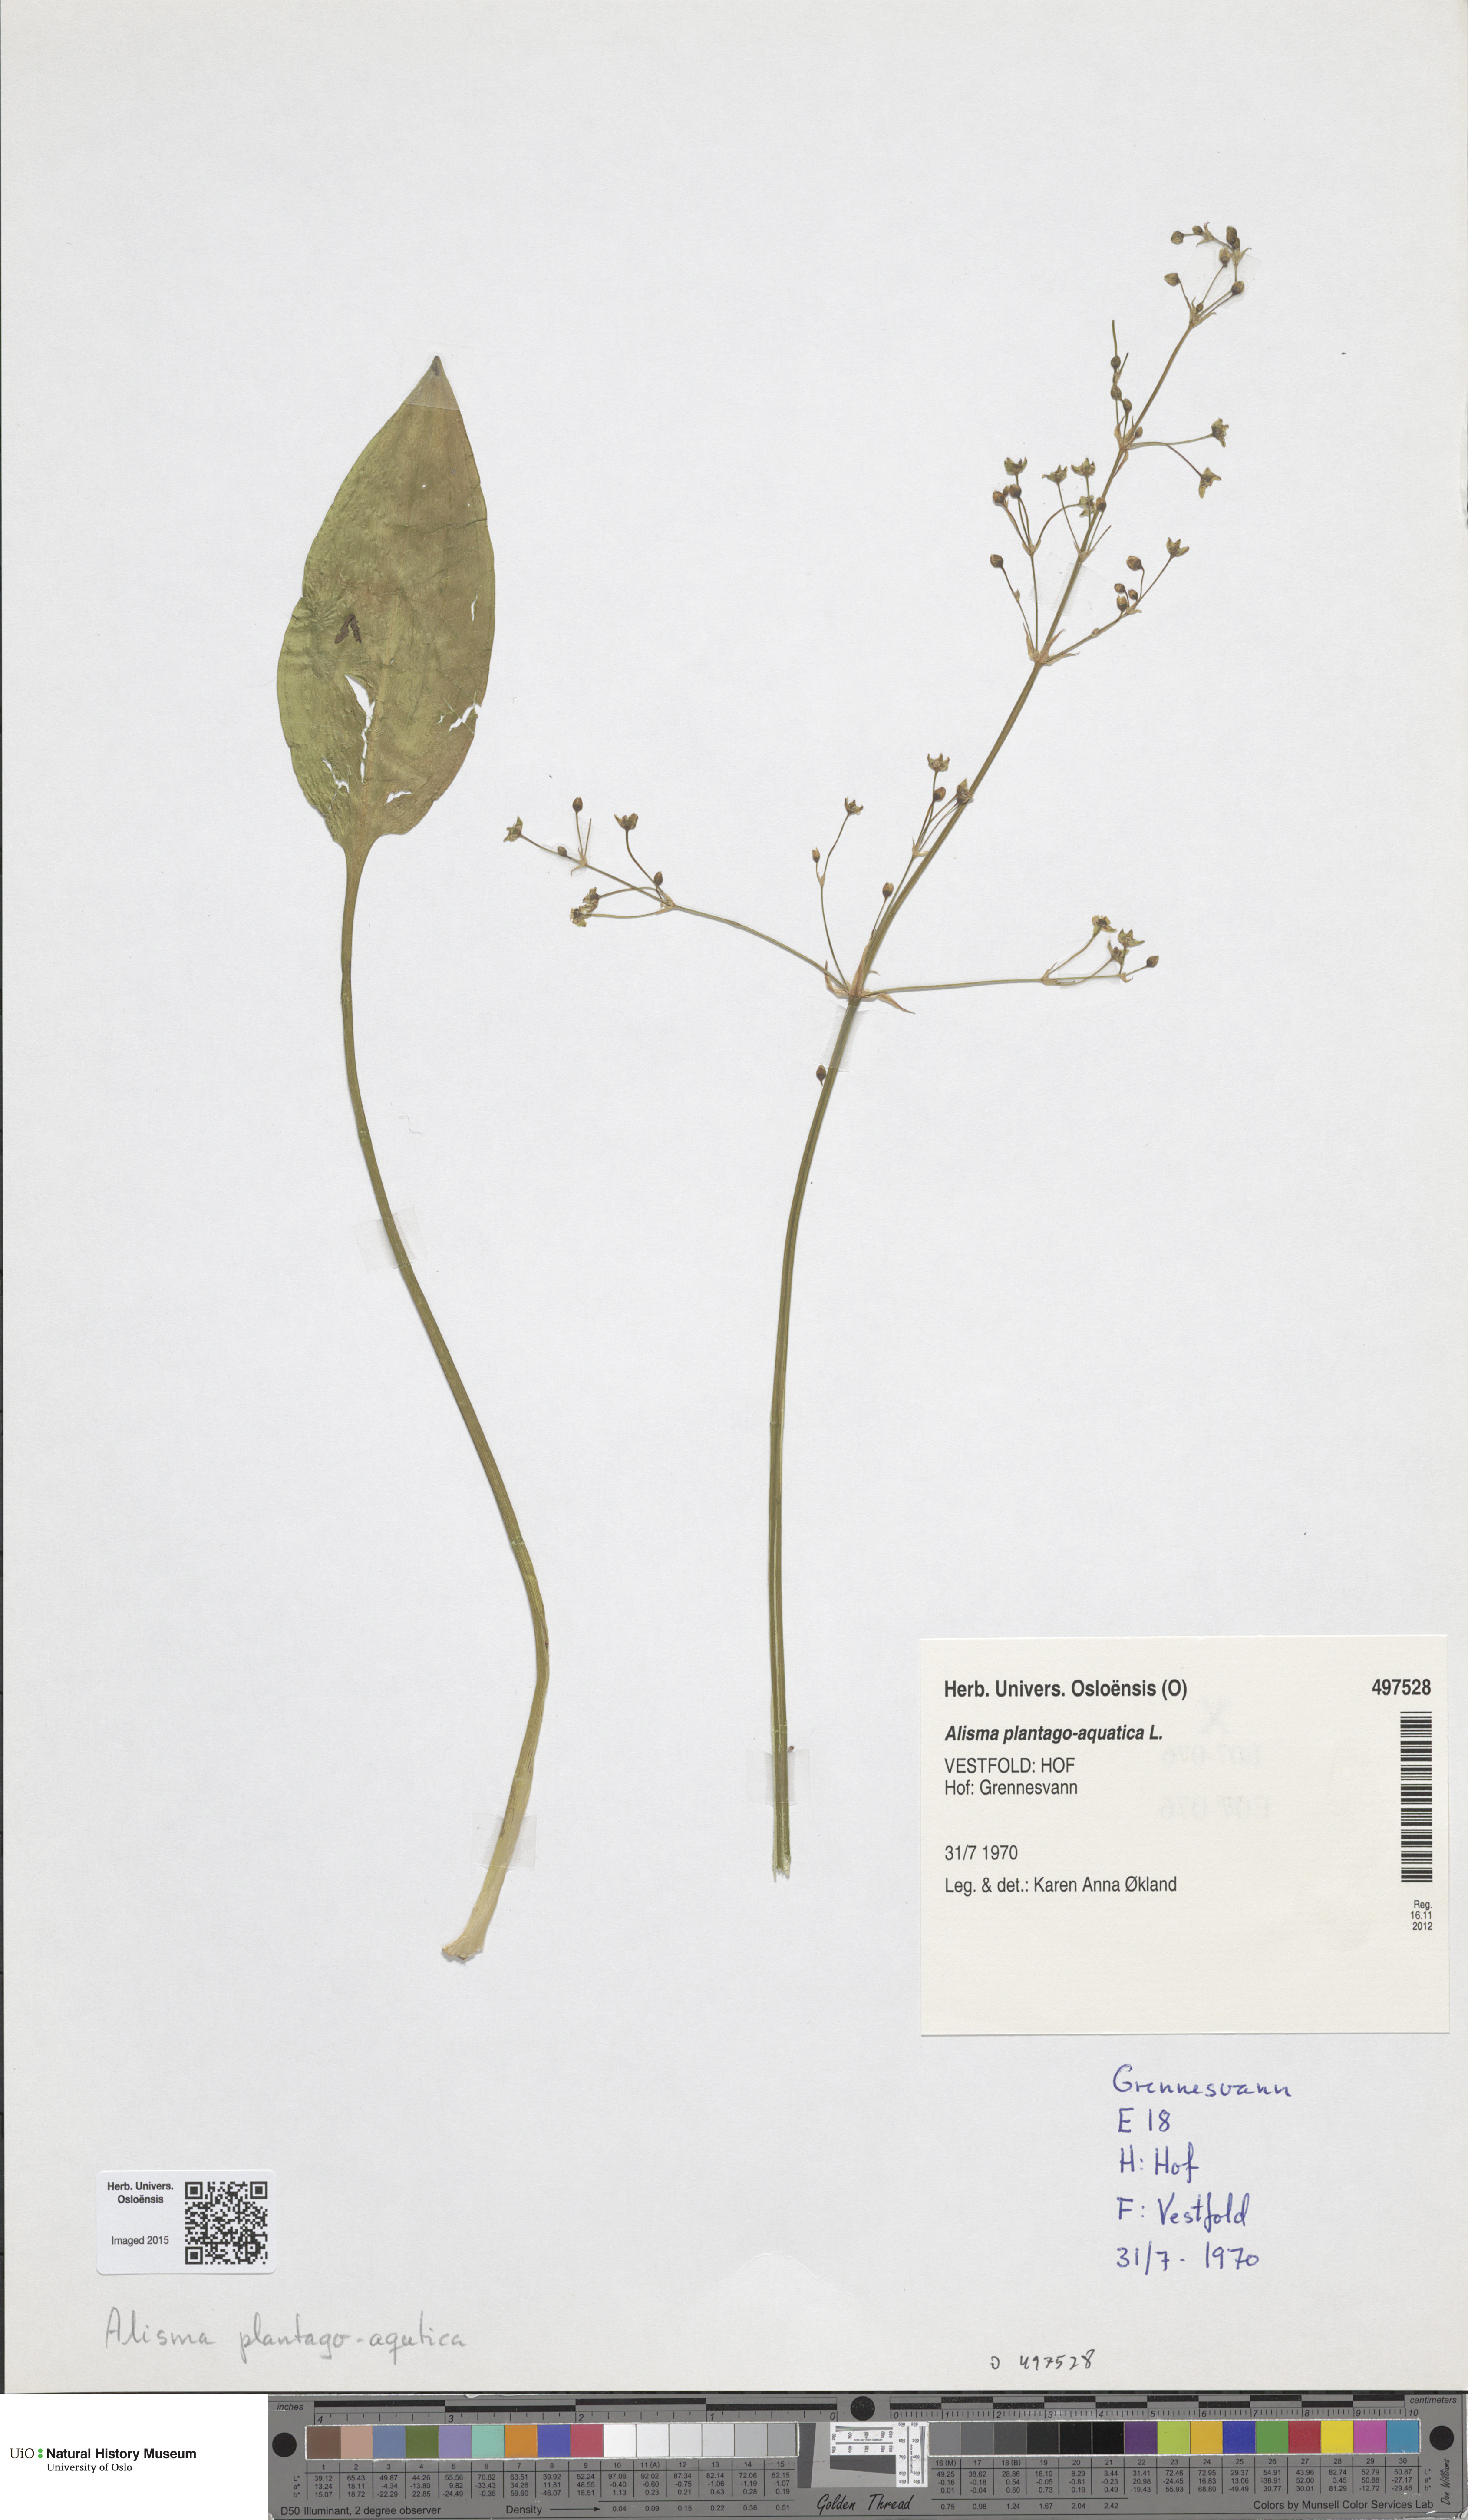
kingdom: Plantae
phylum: Tracheophyta
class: Liliopsida
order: Alismatales
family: Alismataceae
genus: Alisma
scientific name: Alisma plantago-aquatica
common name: Water-plantain
